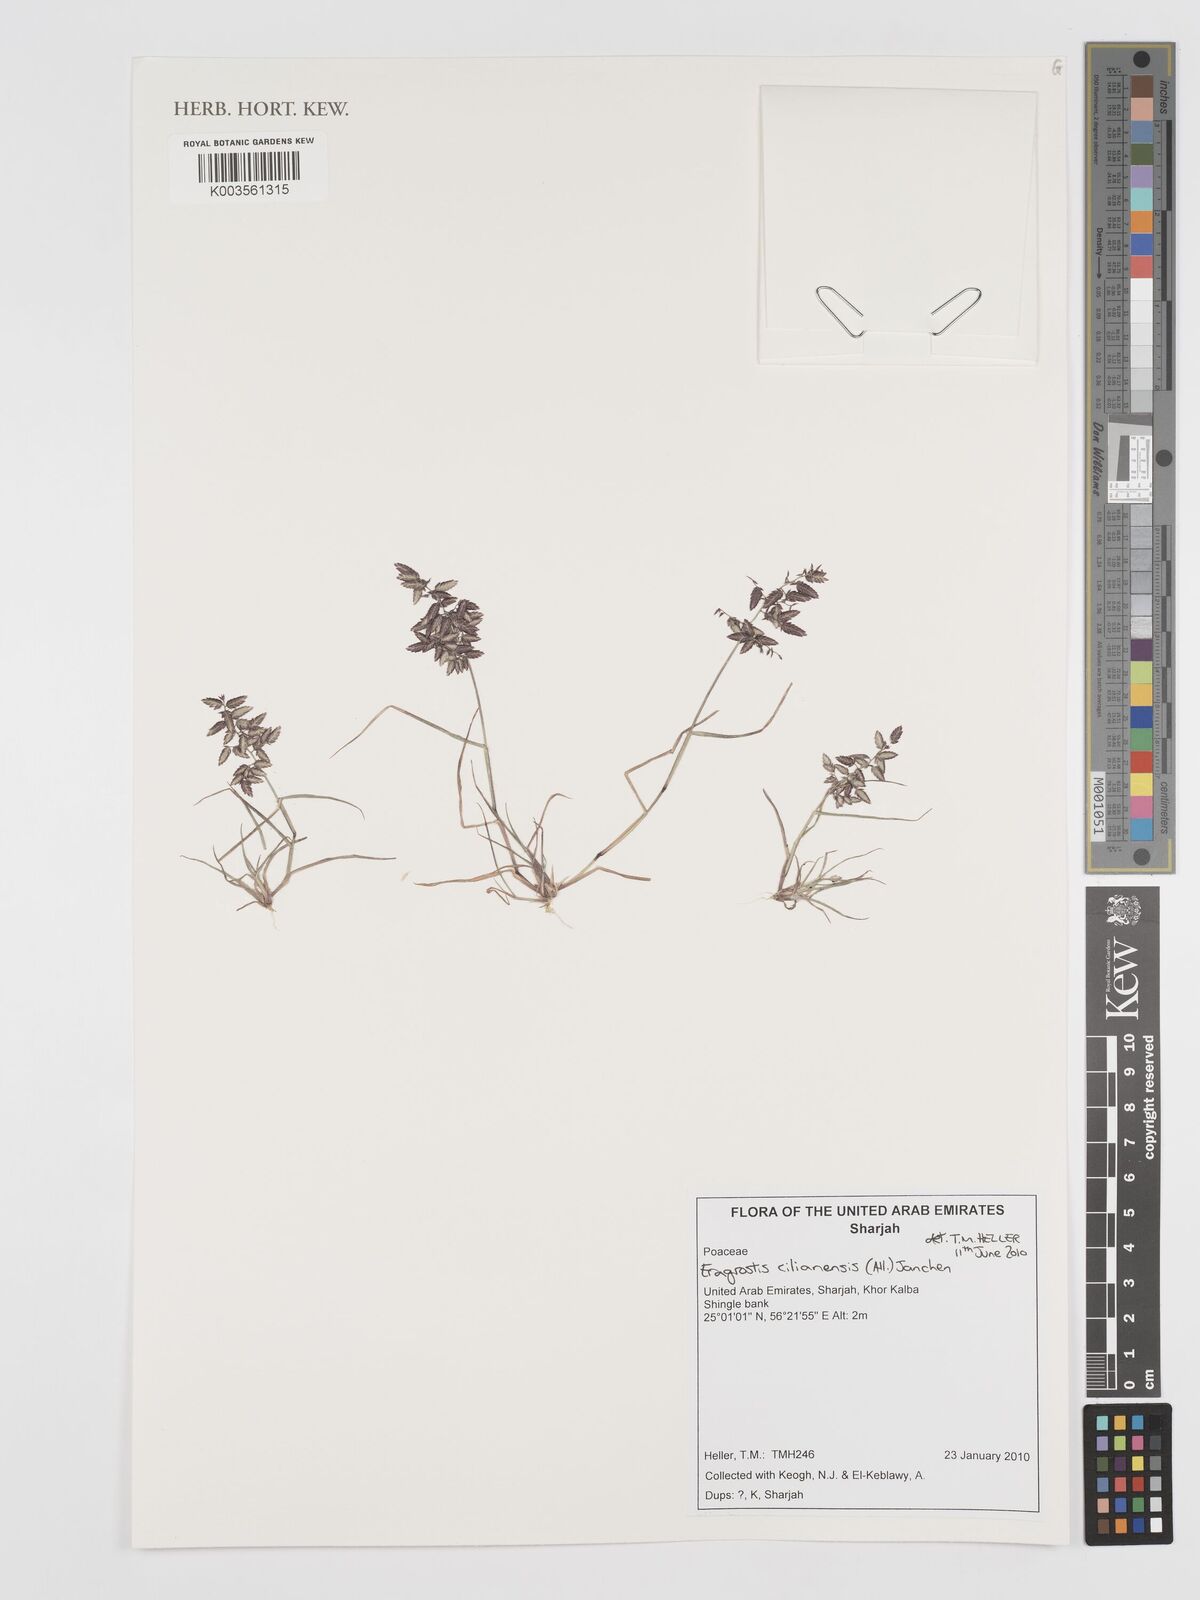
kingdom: Plantae
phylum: Tracheophyta
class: Liliopsida
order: Poales
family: Poaceae
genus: Eragrostis
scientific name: Eragrostis cilianensis
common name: Stinkgrass
